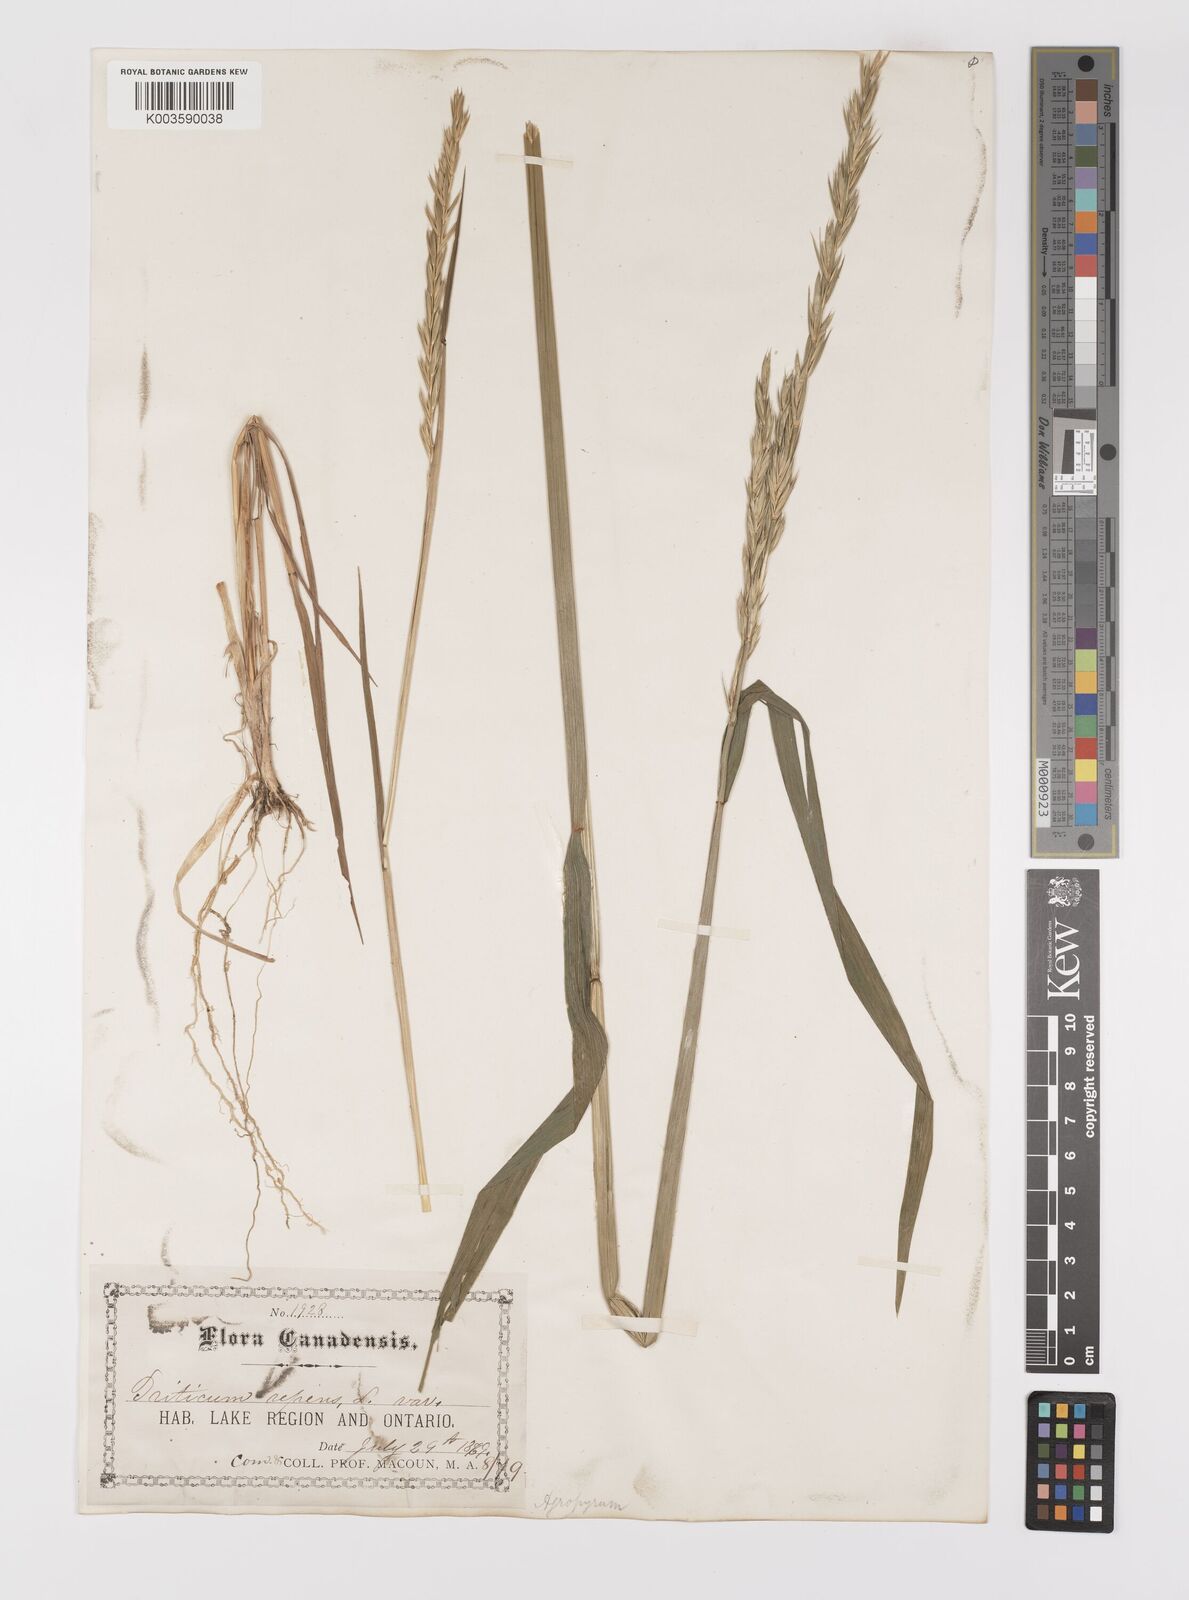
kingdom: Plantae
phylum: Tracheophyta
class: Liliopsida
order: Poales
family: Poaceae
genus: Elymus
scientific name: Elymus repens
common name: Quackgrass
